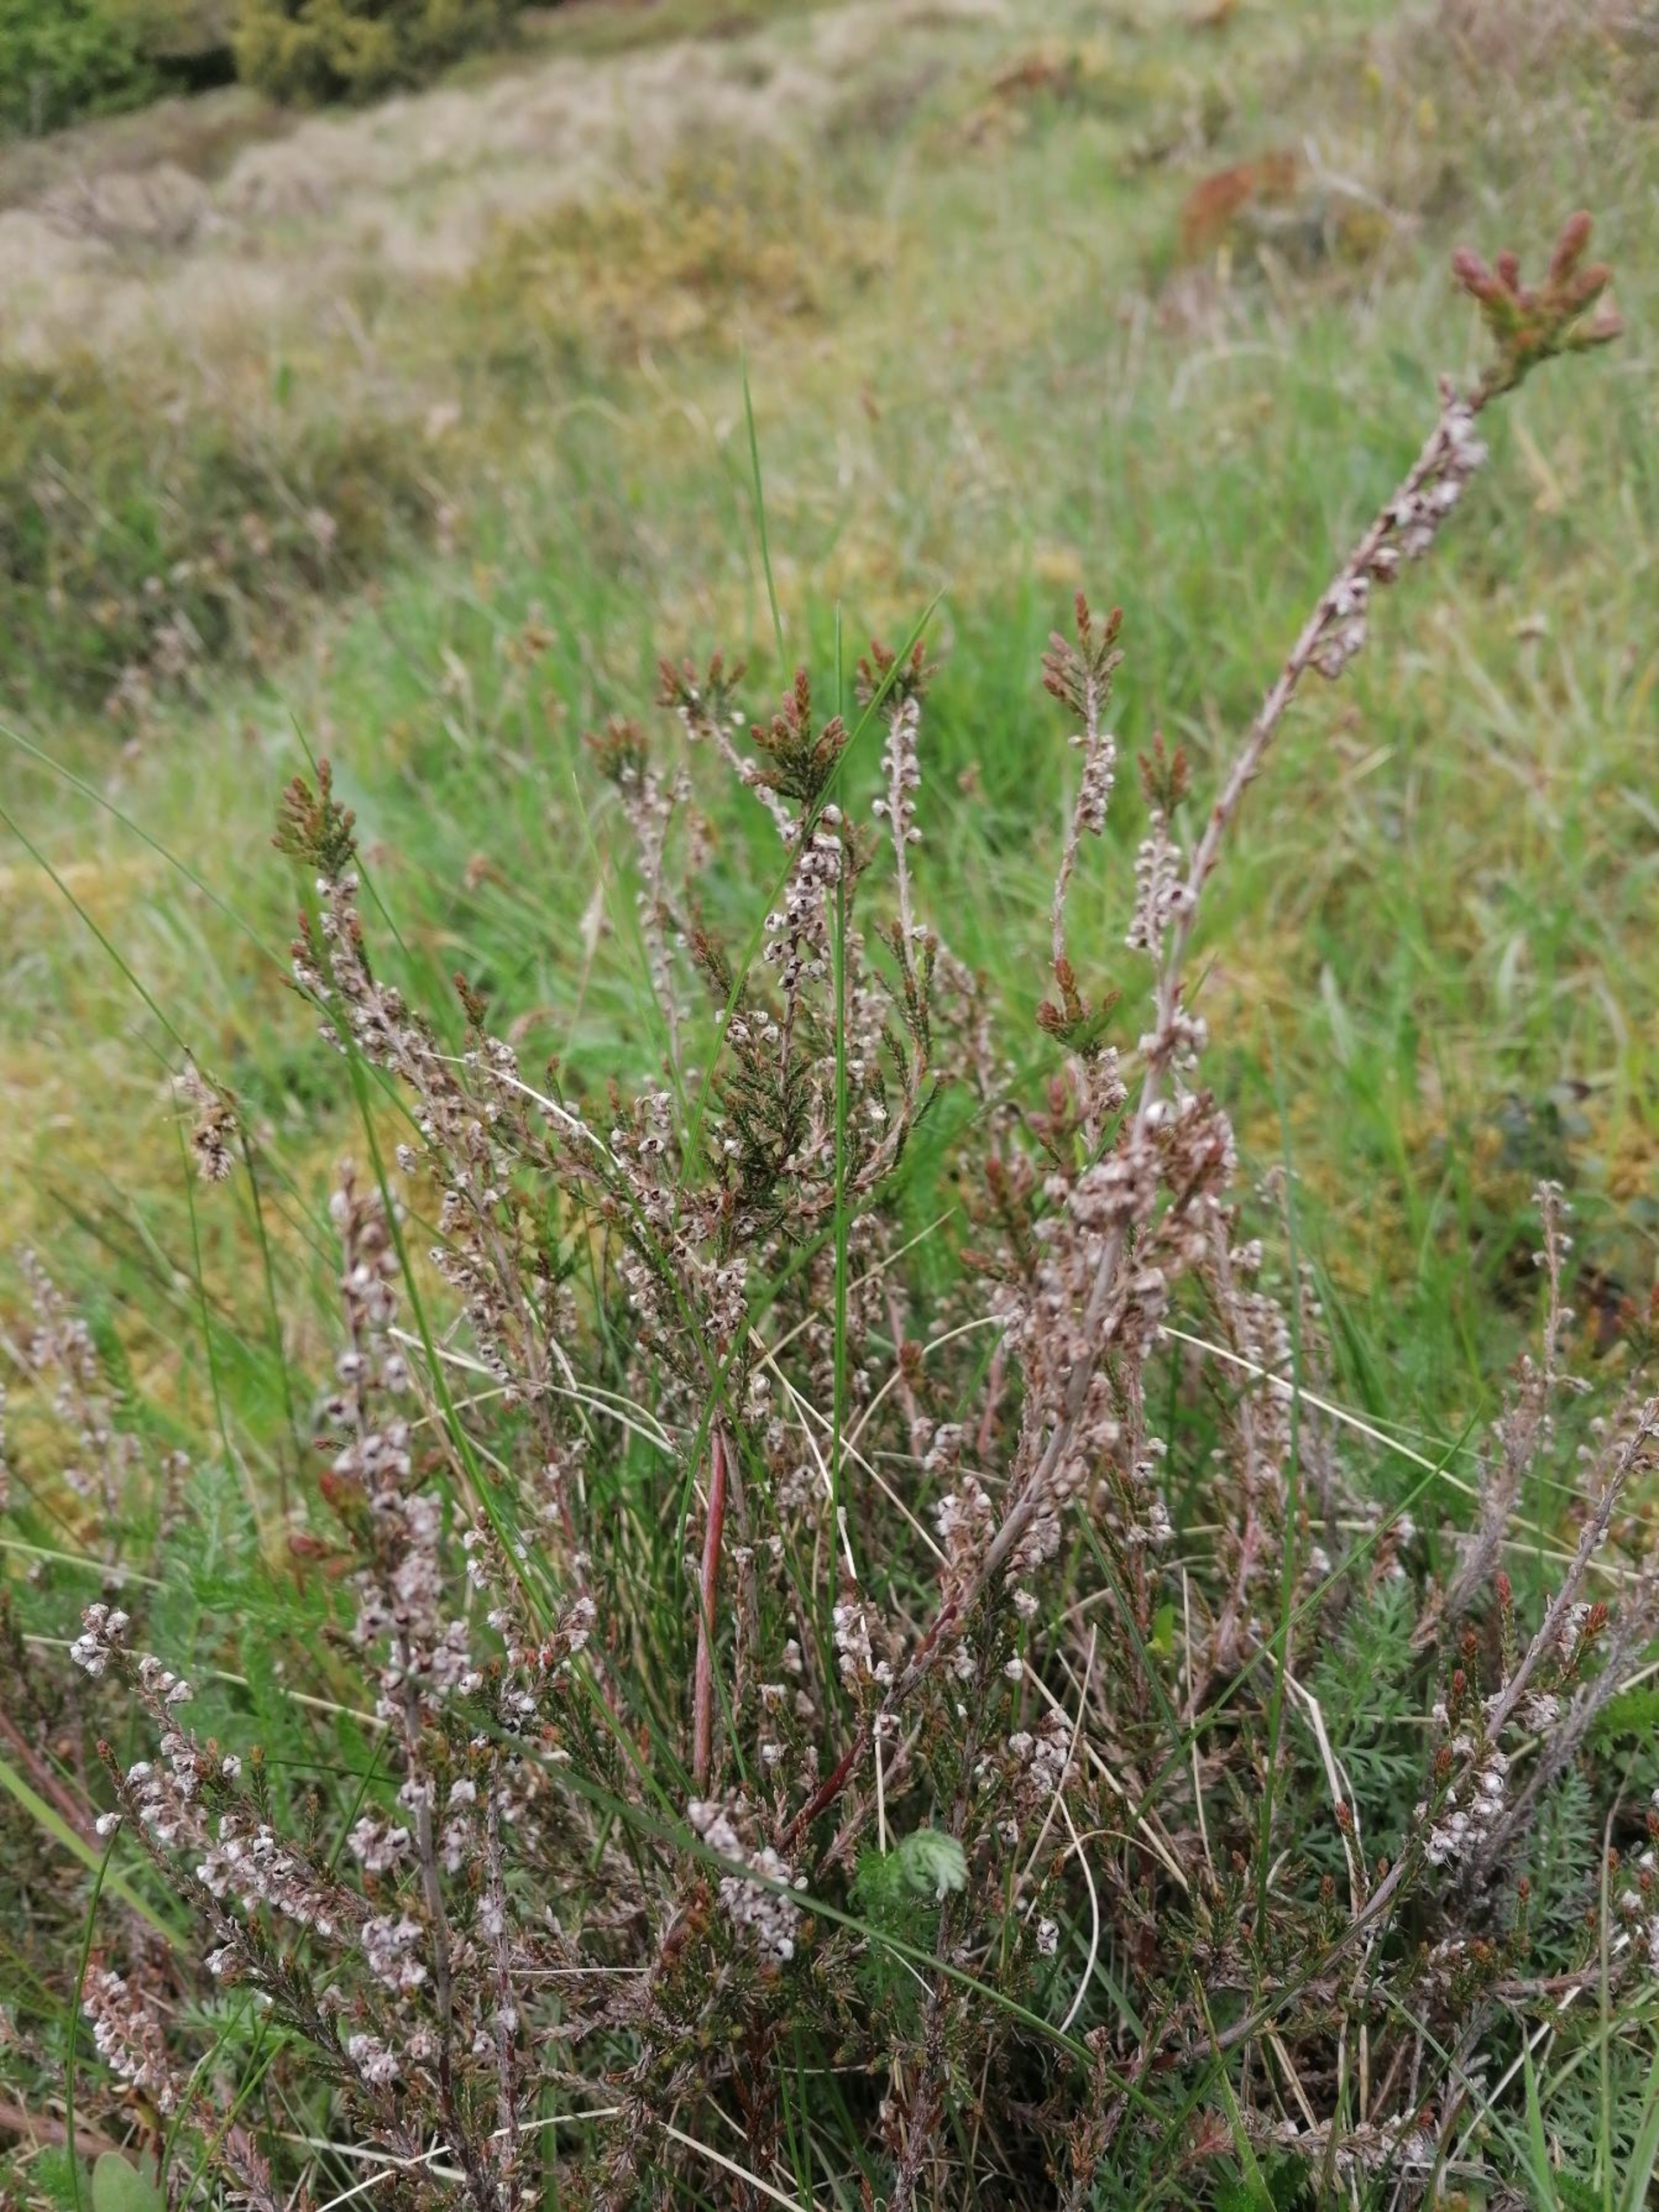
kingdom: Plantae
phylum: Tracheophyta
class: Magnoliopsida
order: Ericales
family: Ericaceae
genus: Calluna
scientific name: Calluna vulgaris
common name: Hedelyng
